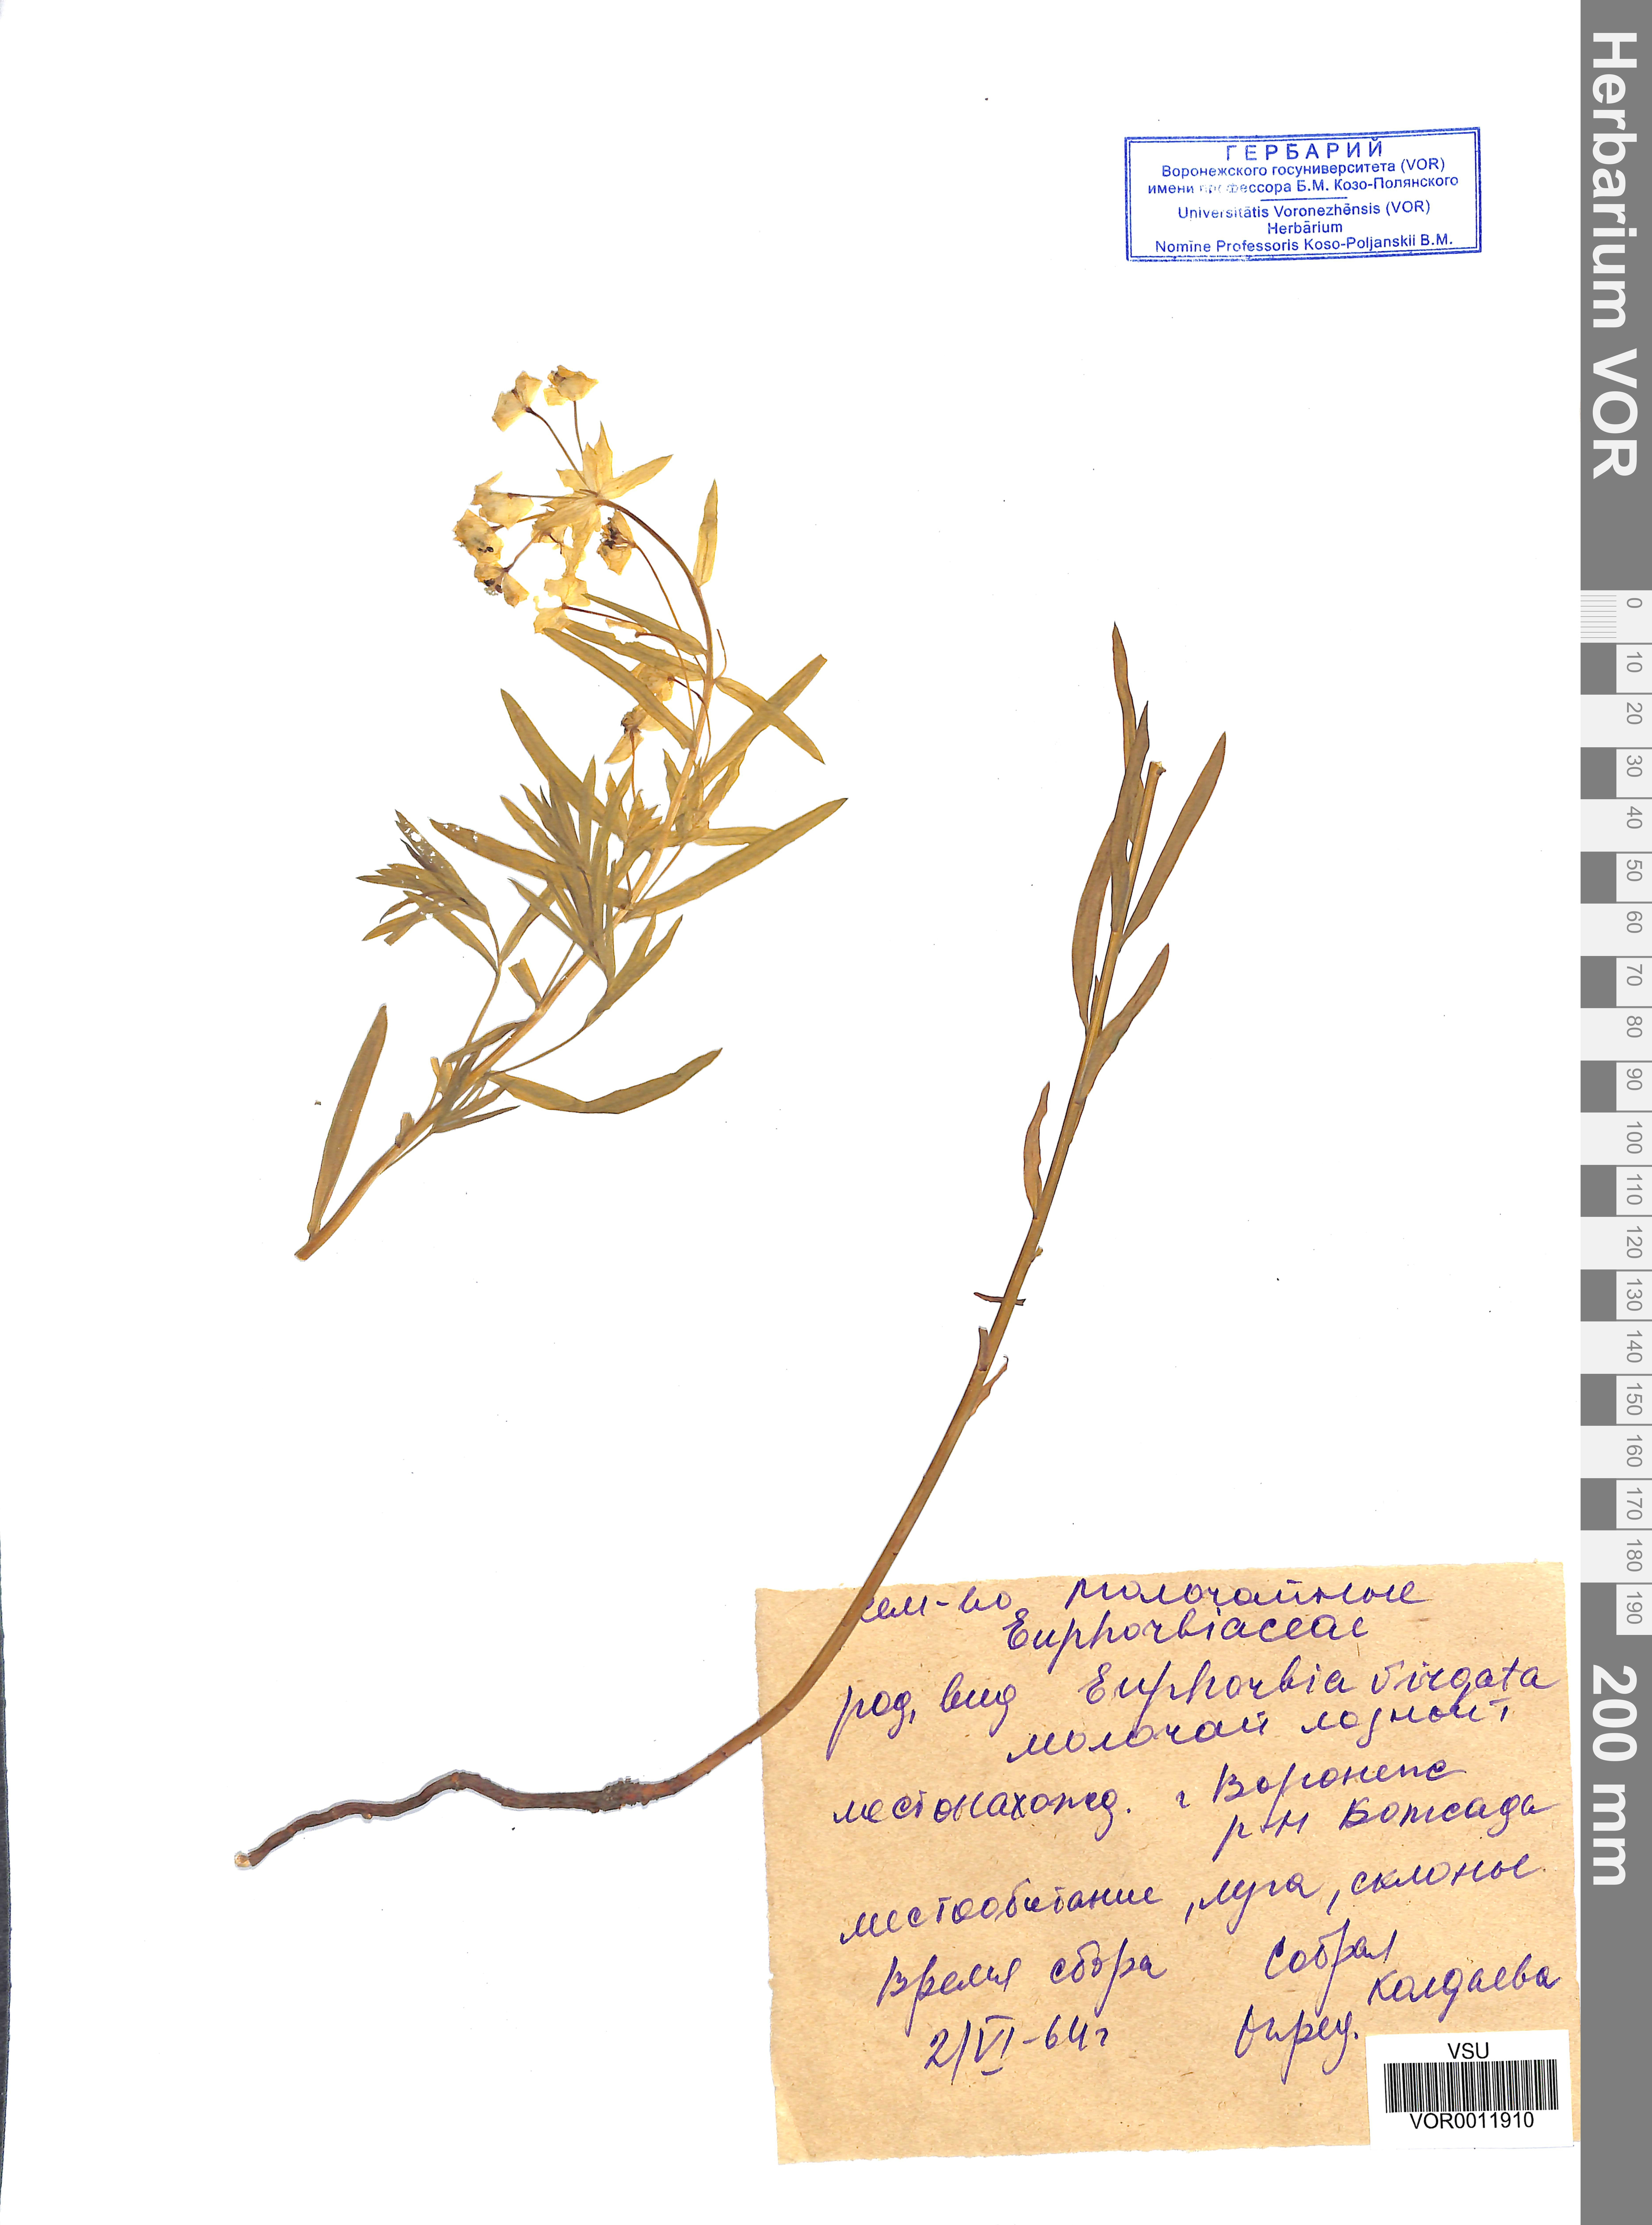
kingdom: Plantae
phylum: Tracheophyta
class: Magnoliopsida
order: Malpighiales
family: Euphorbiaceae
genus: Euphorbia
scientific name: Euphorbia virgata
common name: Leafy spurge
